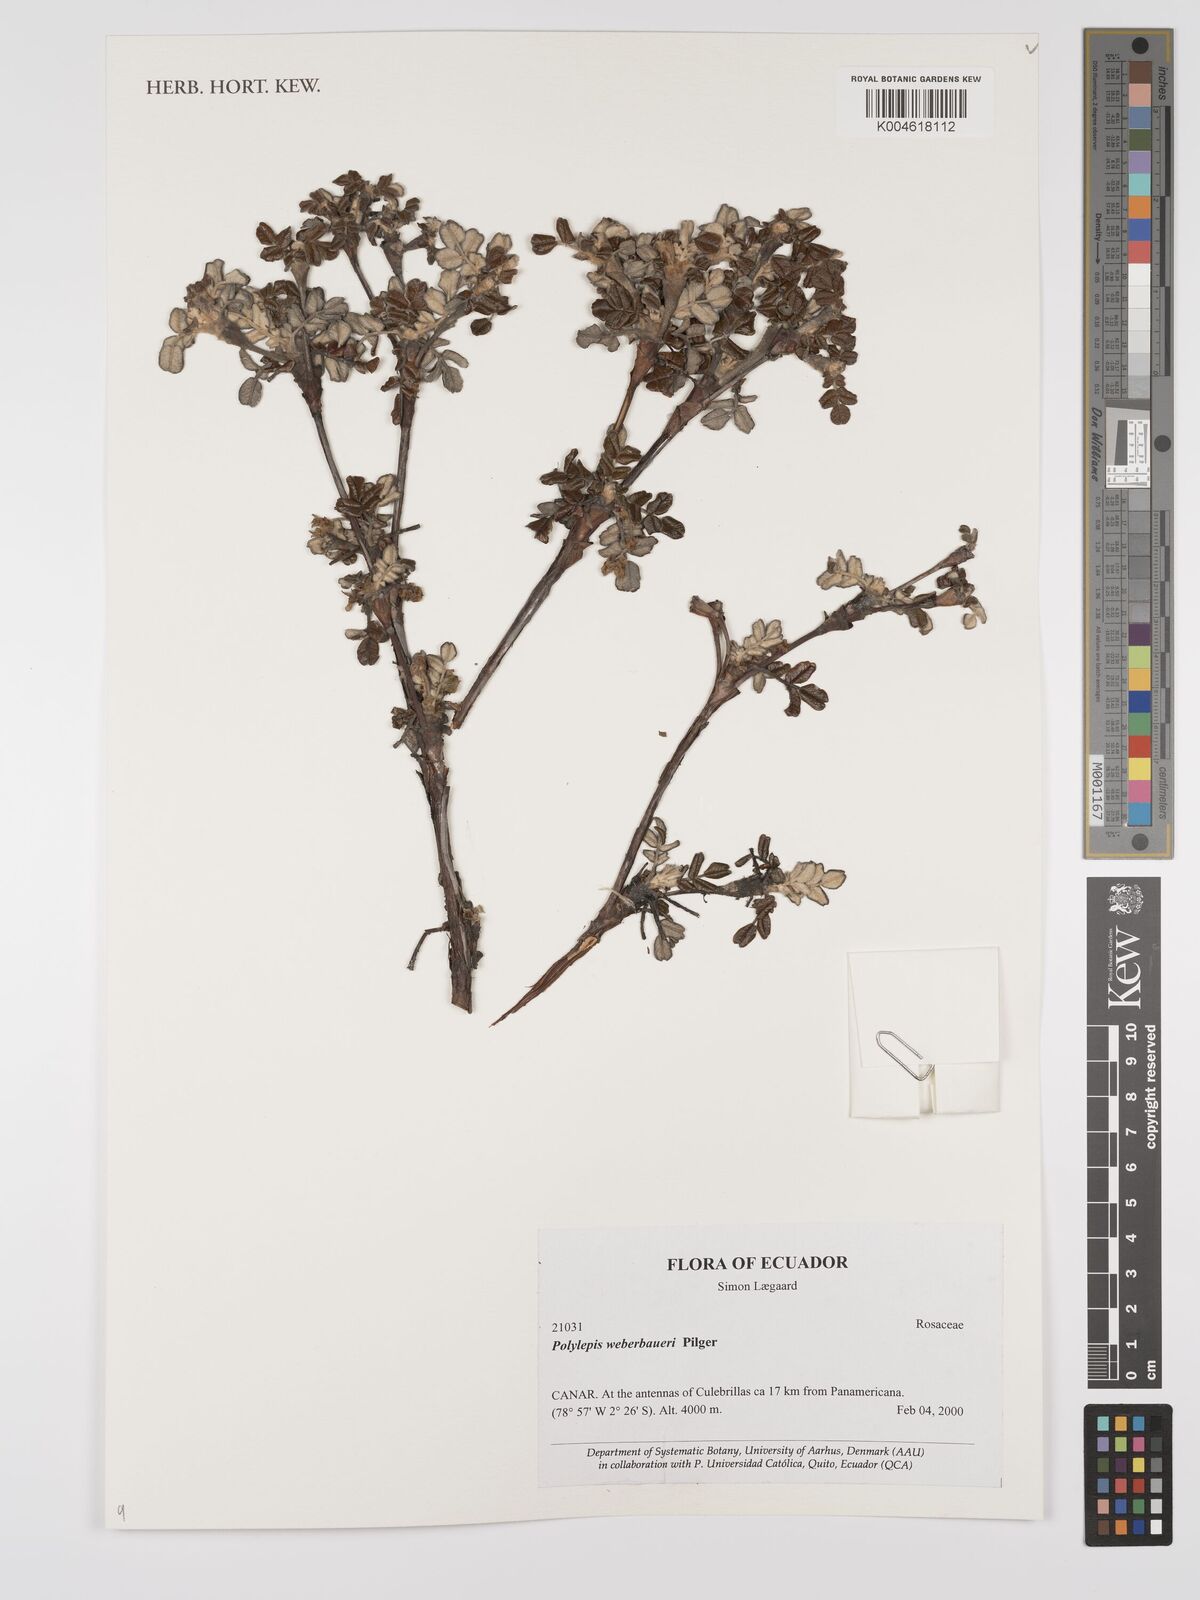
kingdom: Plantae
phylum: Tracheophyta
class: Magnoliopsida
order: Rosales
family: Rosaceae
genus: Polylepis
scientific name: Polylepis weberbaueri
